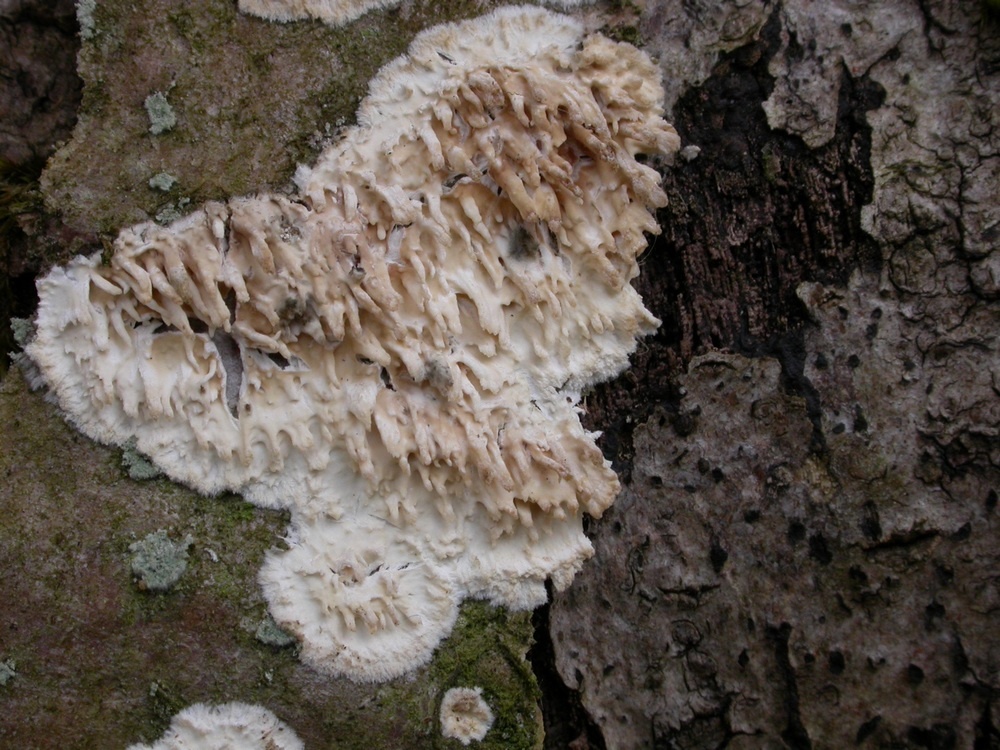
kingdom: Fungi
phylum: Basidiomycota
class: Agaricomycetes
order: Hymenochaetales
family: Schizoporaceae
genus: Xylodon
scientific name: Xylodon radula
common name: grovtandet kalkskind
